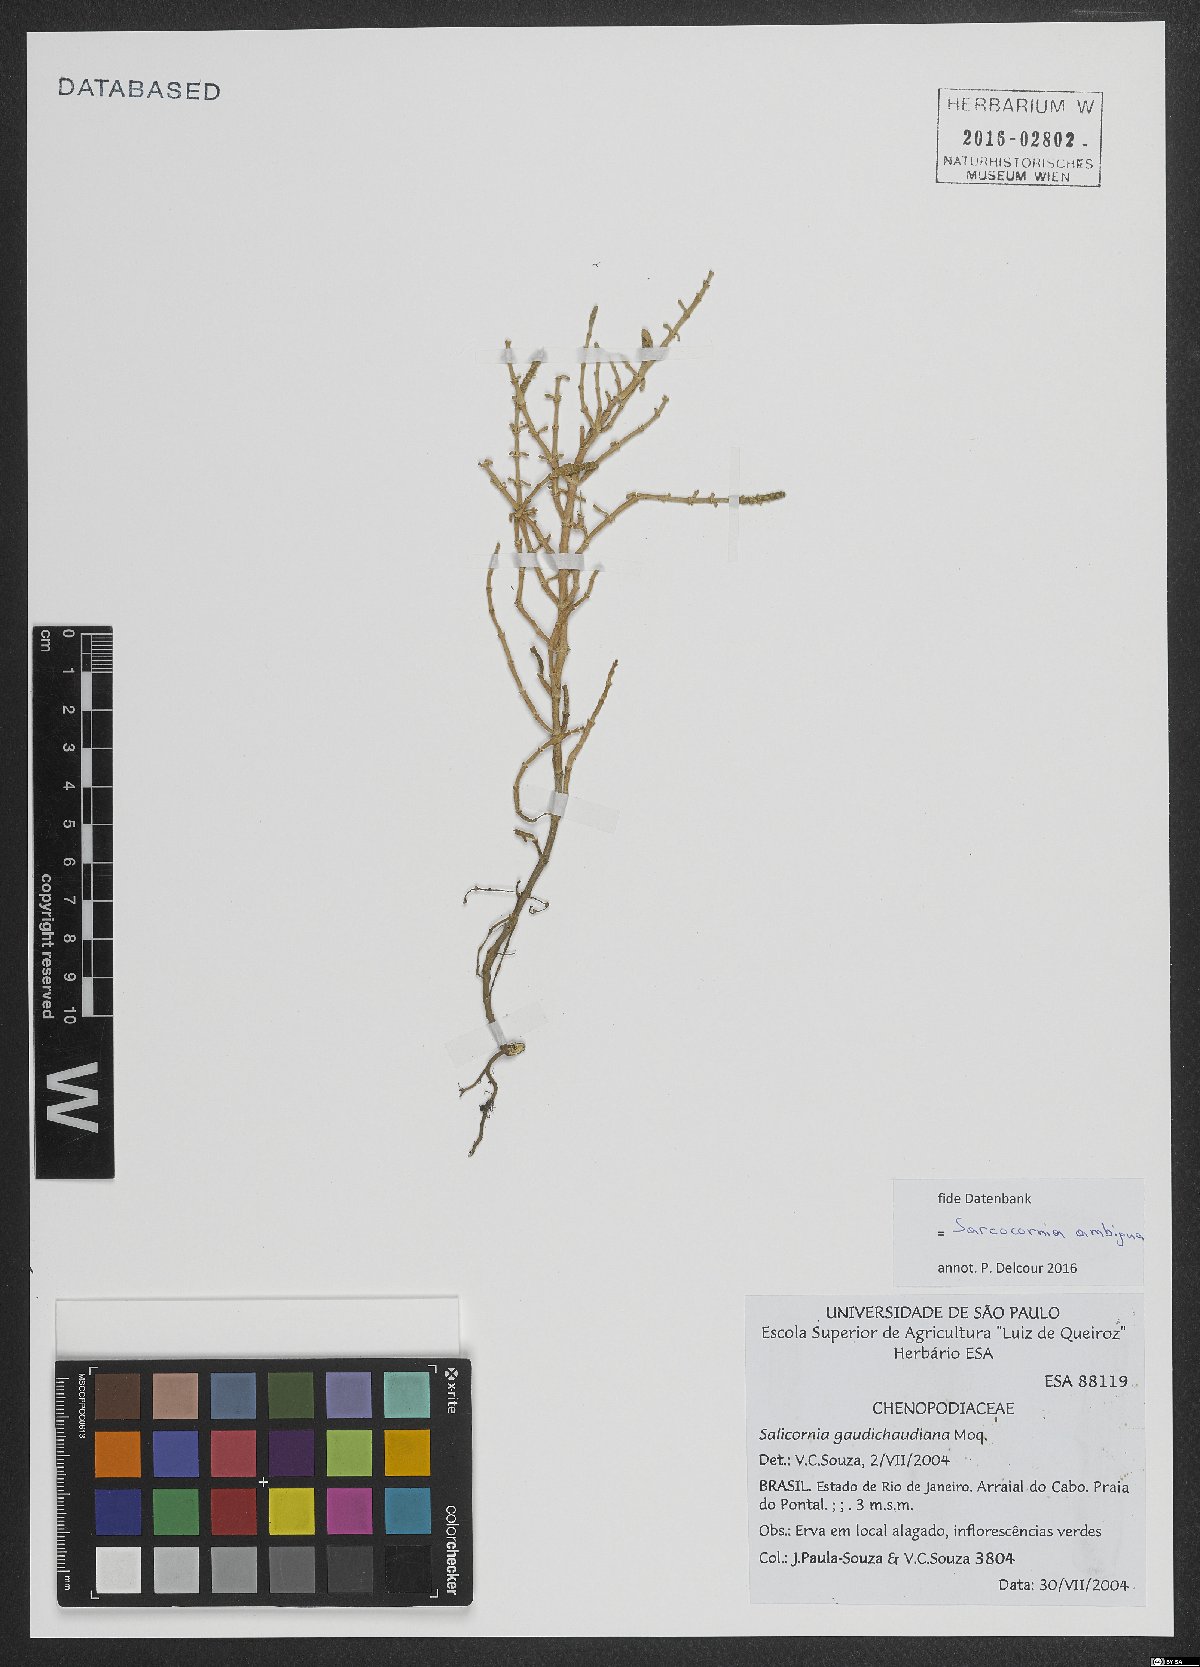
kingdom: Plantae
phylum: Tracheophyta
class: Magnoliopsida
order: Caryophyllales
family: Amaranthaceae
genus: Salicornia
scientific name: Salicornia ambigua
